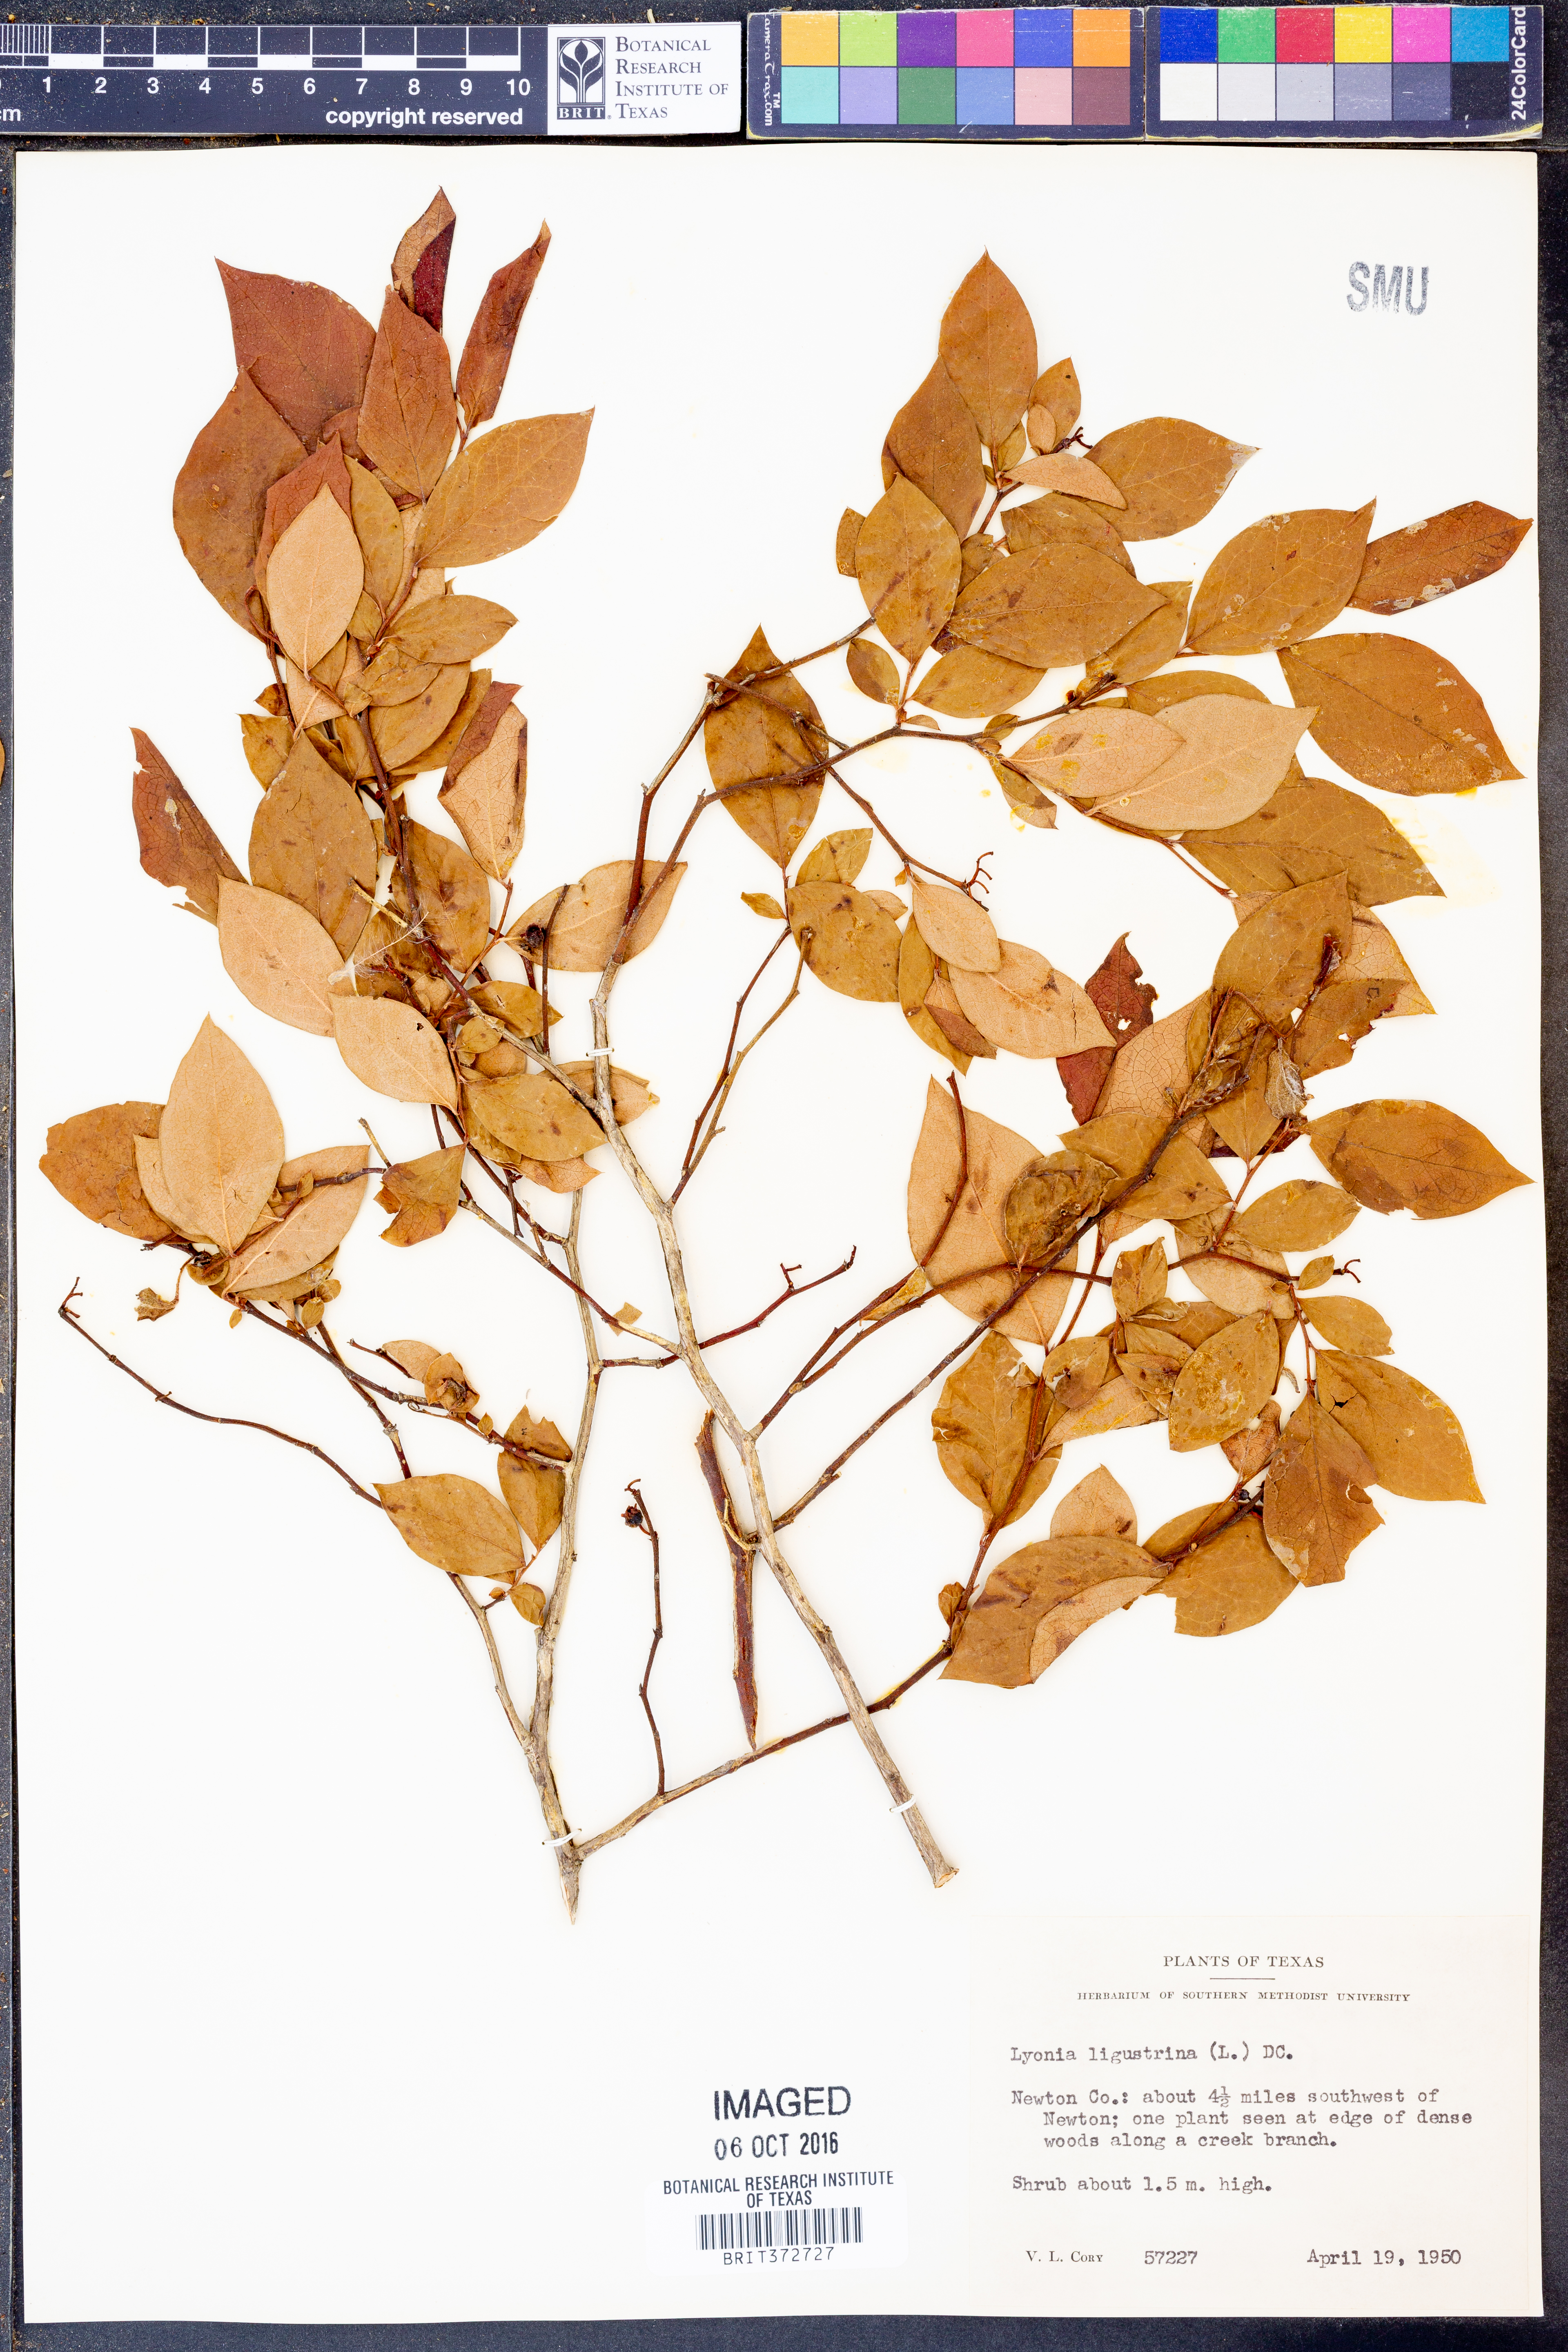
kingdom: Plantae
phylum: Tracheophyta
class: Magnoliopsida
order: Ericales
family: Ericaceae
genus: Vaccinium
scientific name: Vaccinium corymbosum
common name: Blueberry
